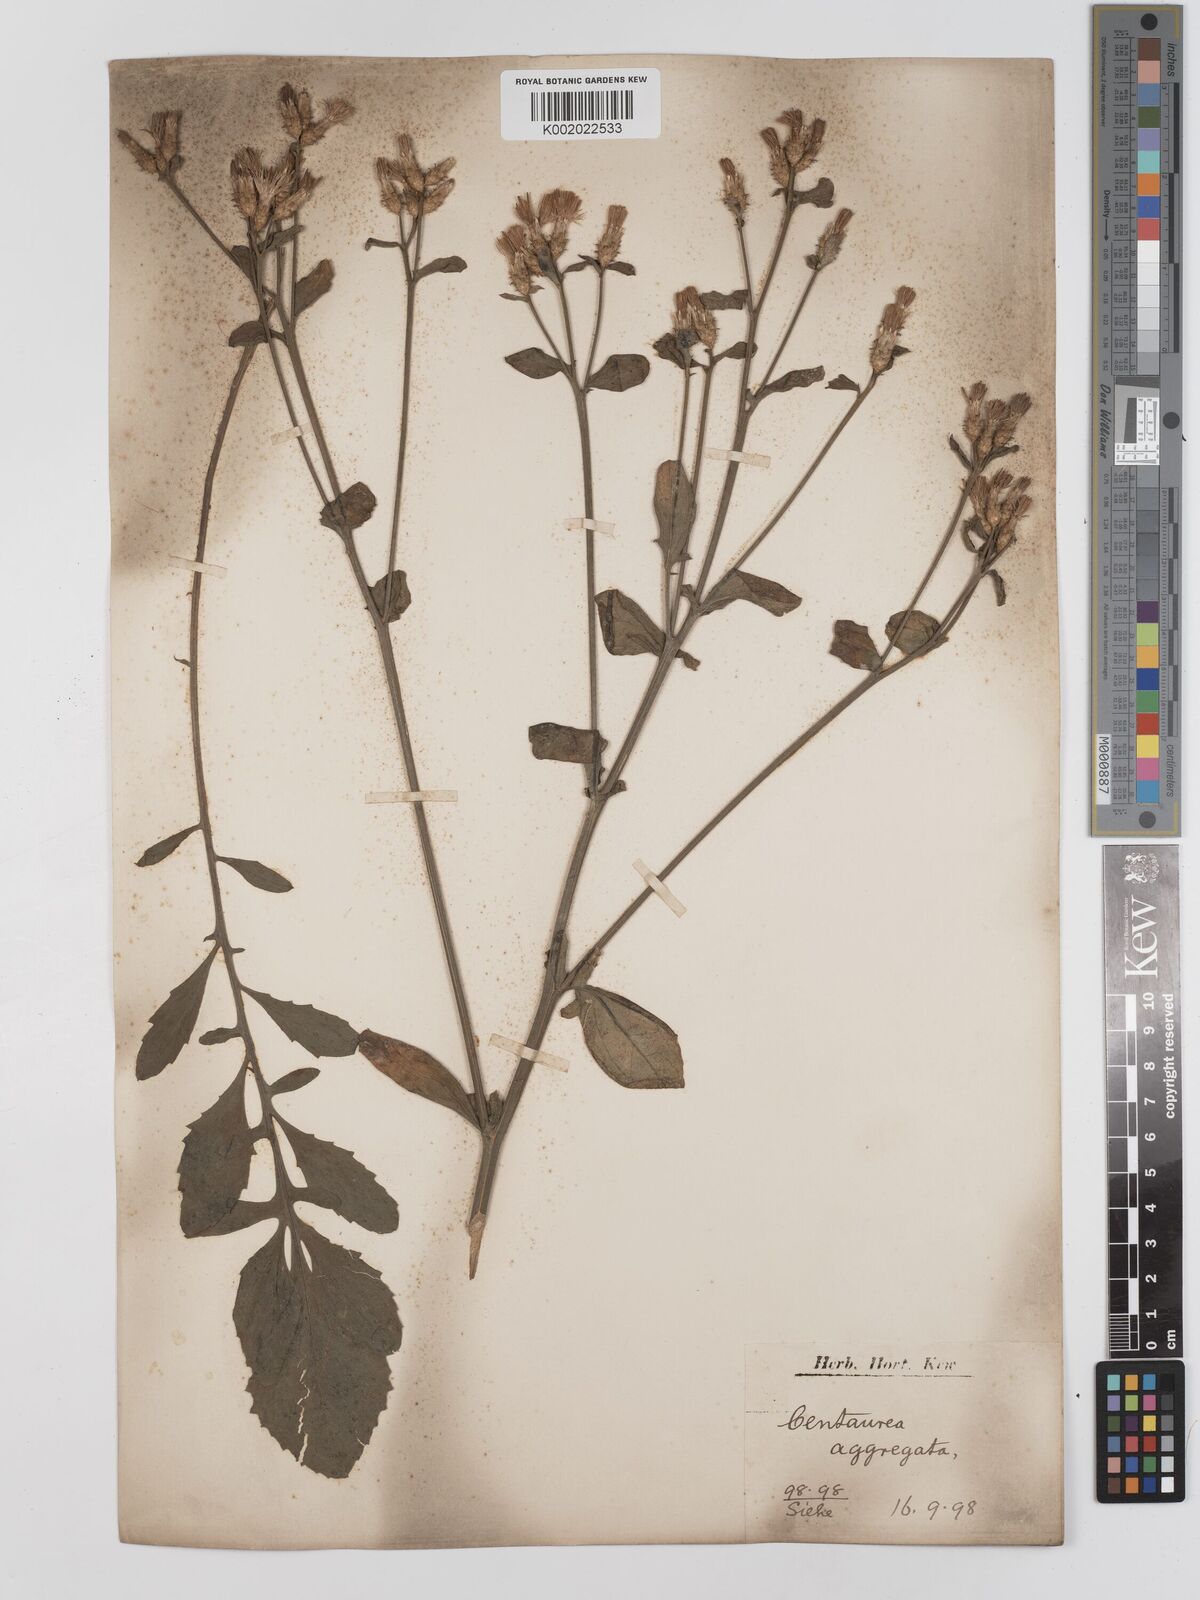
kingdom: Plantae
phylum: Tracheophyta
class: Magnoliopsida
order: Asterales
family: Asteraceae
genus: Centaurea
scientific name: Centaurea aggregata
